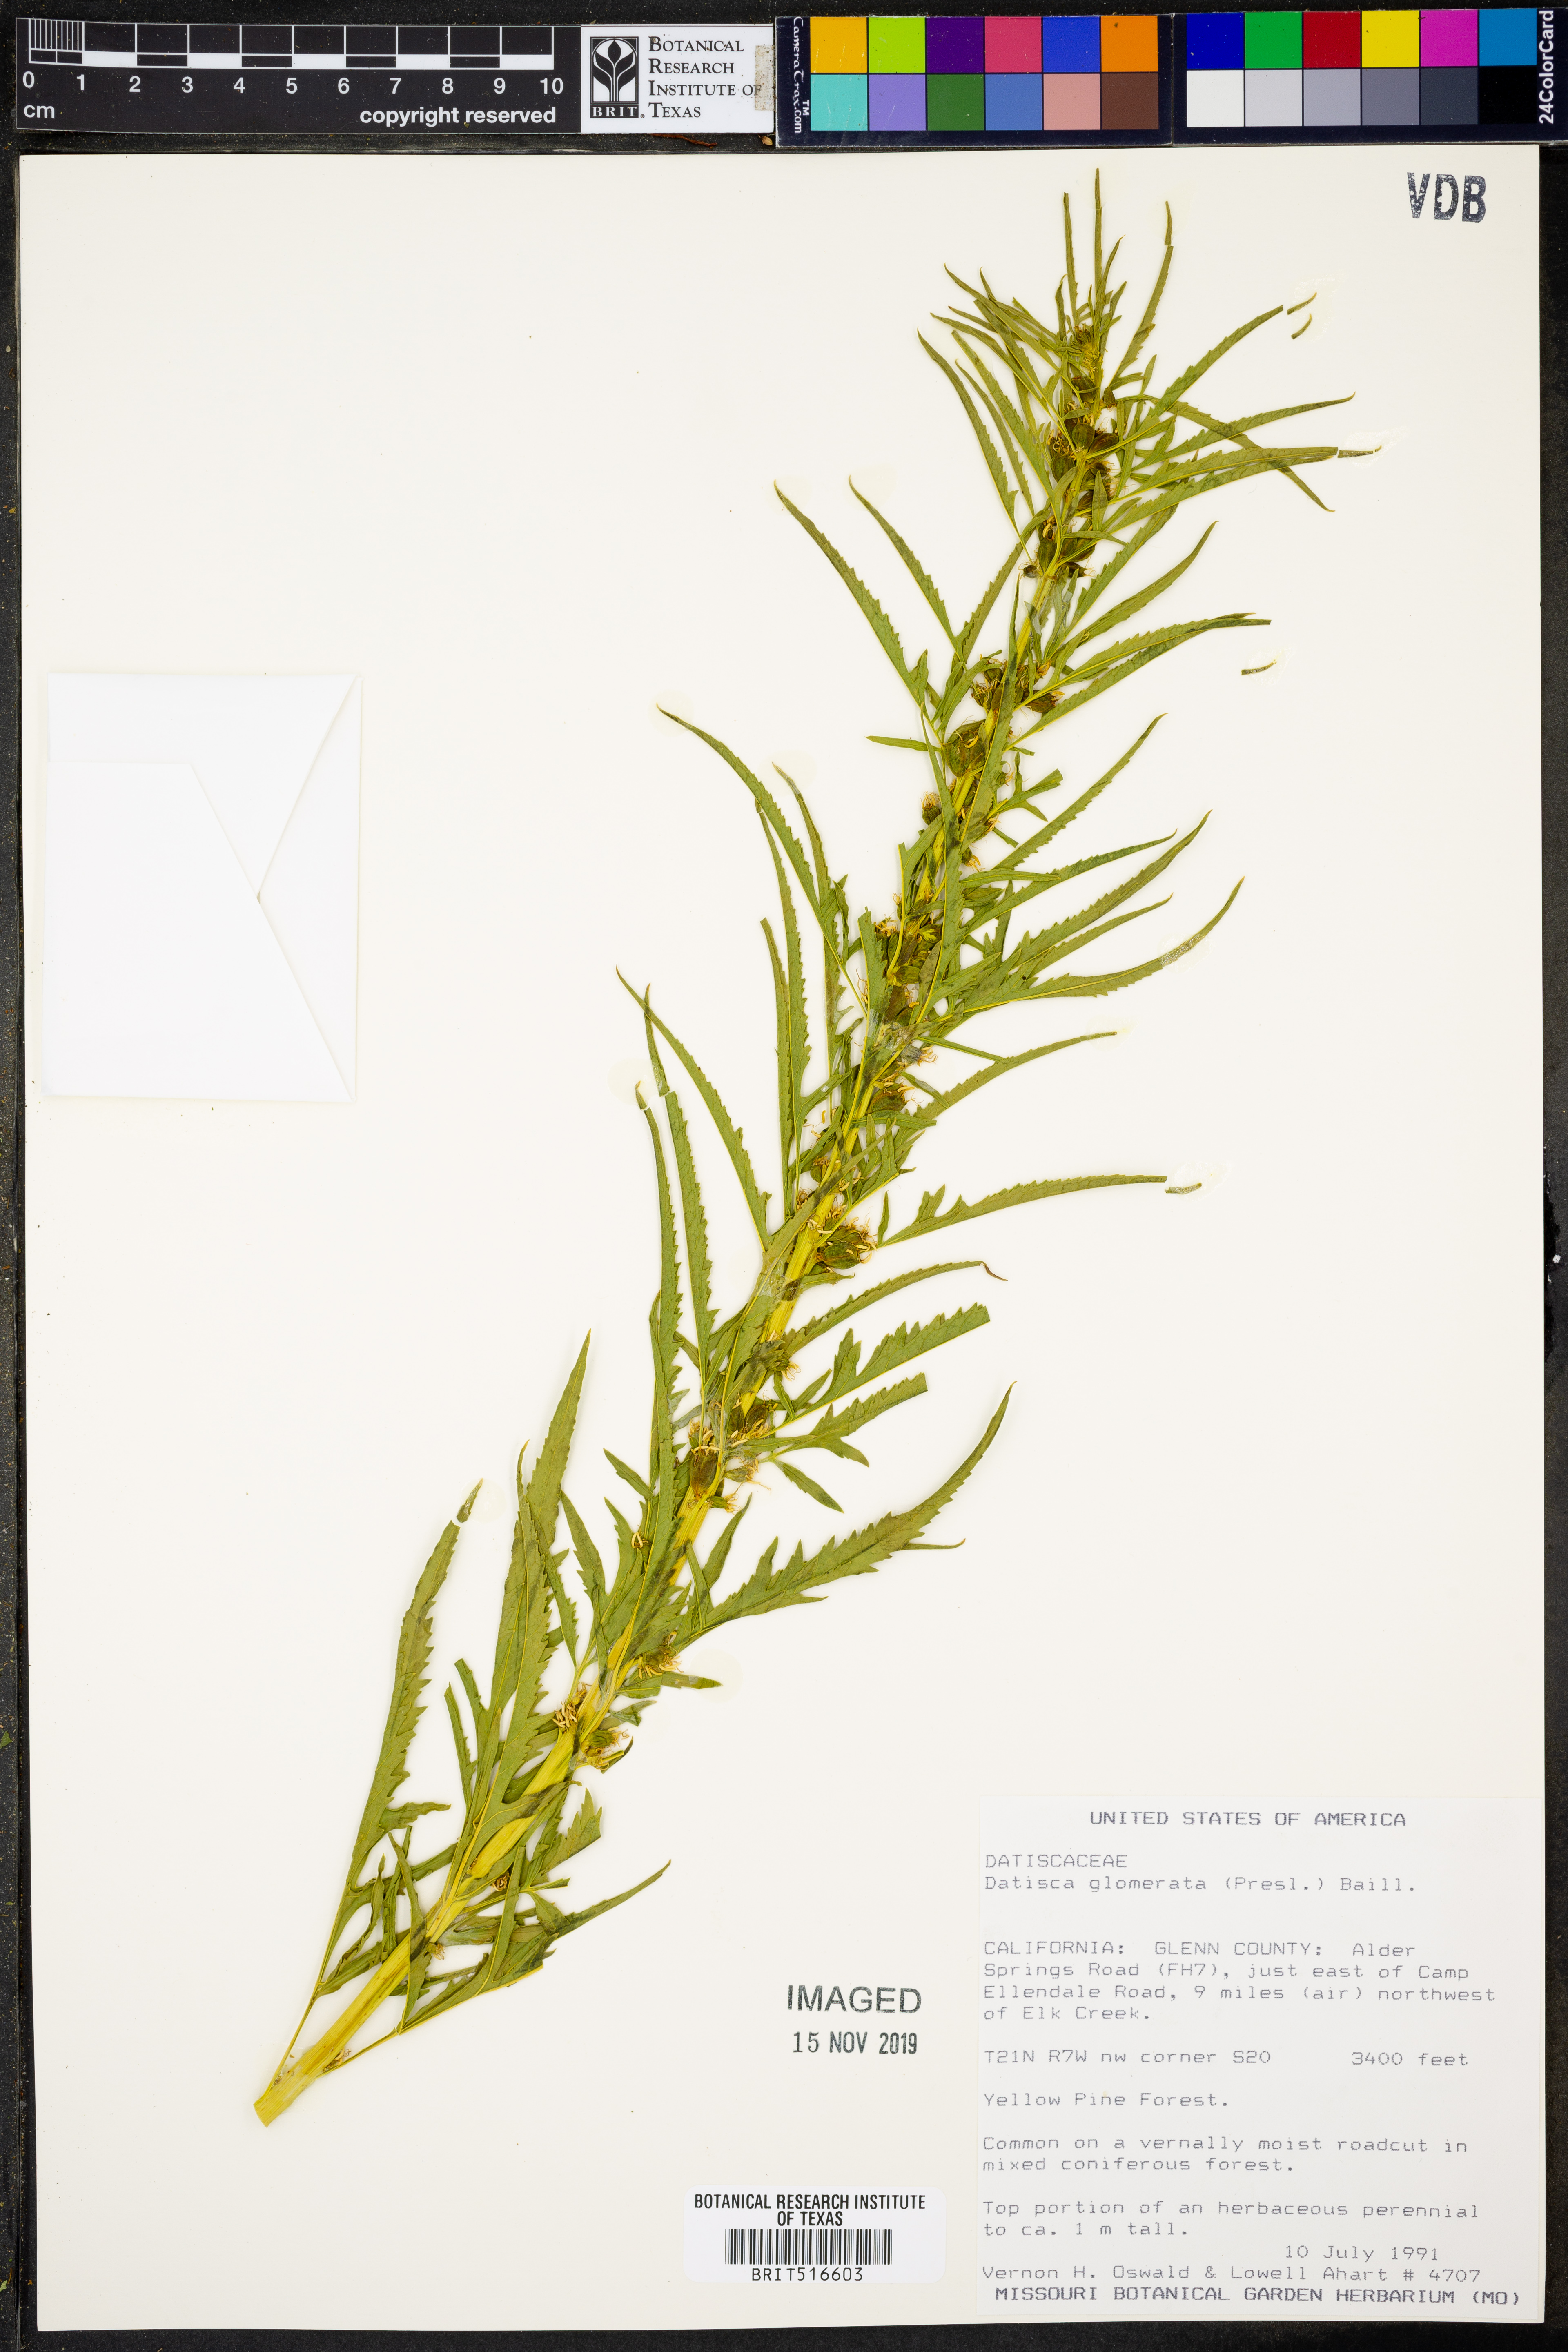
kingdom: Plantae
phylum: Tracheophyta
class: Magnoliopsida
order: Cucurbitales
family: Datiscaceae
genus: Datisca
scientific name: Datisca glomerata
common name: Durango-root
